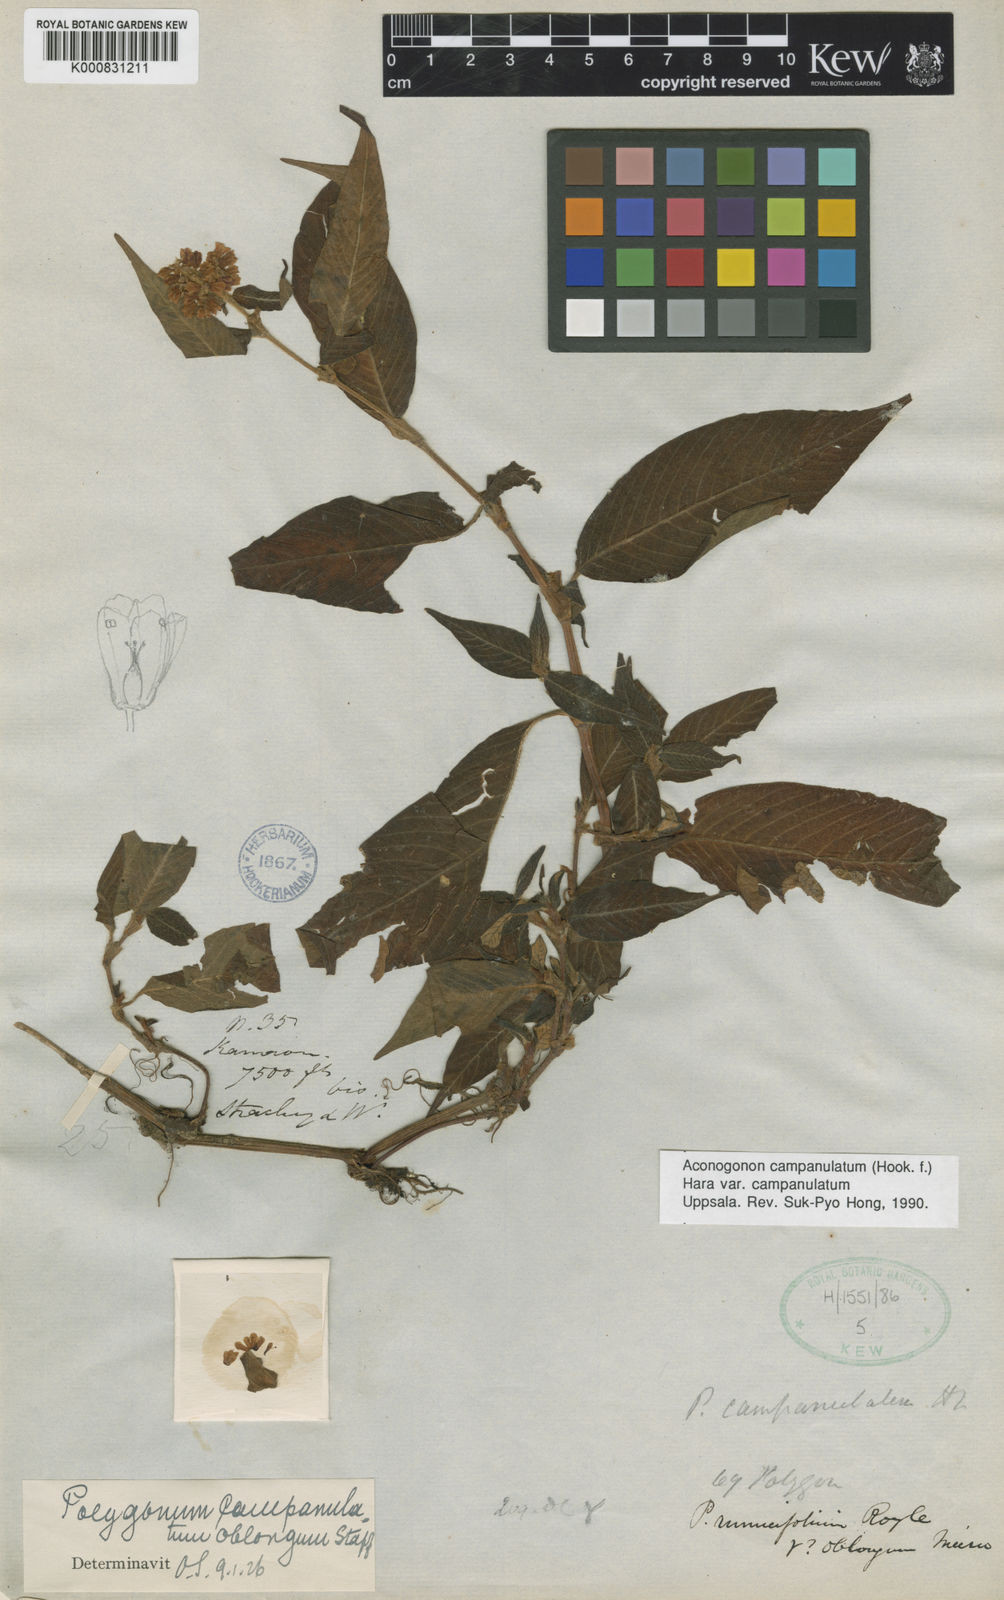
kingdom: Plantae
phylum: Tracheophyta
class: Magnoliopsida
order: Caryophyllales
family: Polygonaceae
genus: Koenigia
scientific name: Koenigia campanulata
